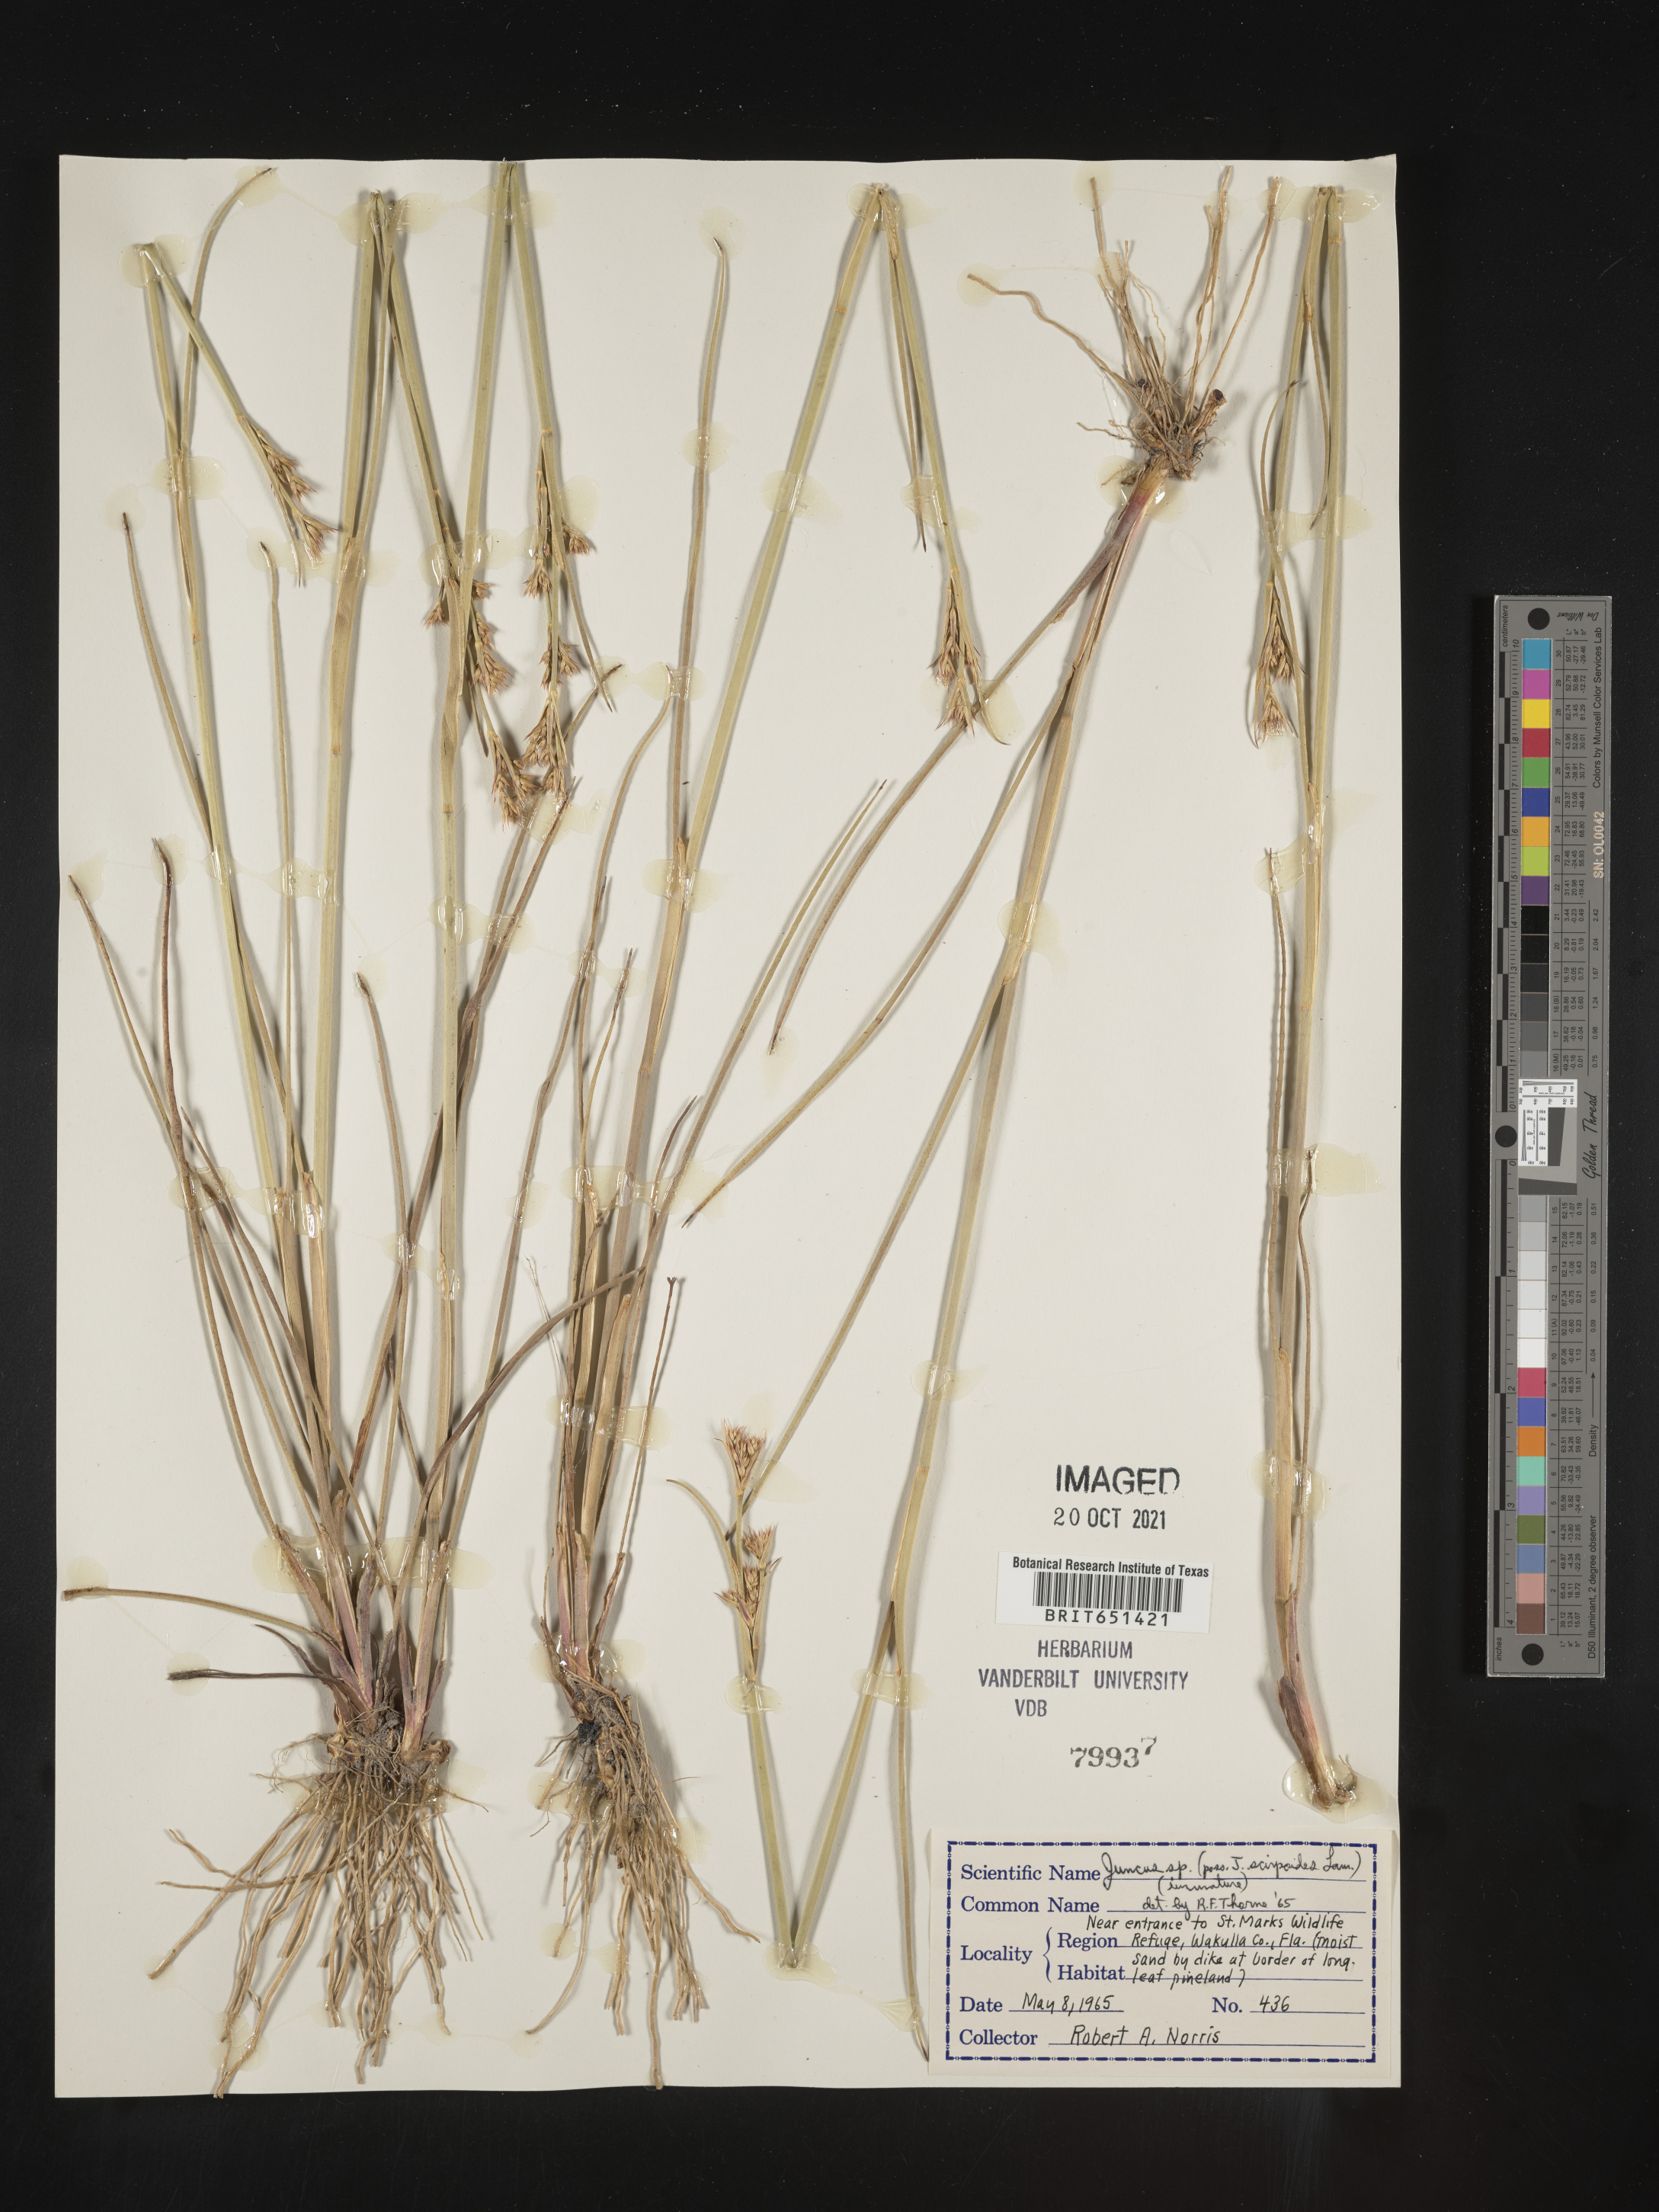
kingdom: Plantae
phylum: Tracheophyta
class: Liliopsida
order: Poales
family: Juncaceae
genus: Juncus
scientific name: Juncus scirpoides
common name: Needlepod rush
